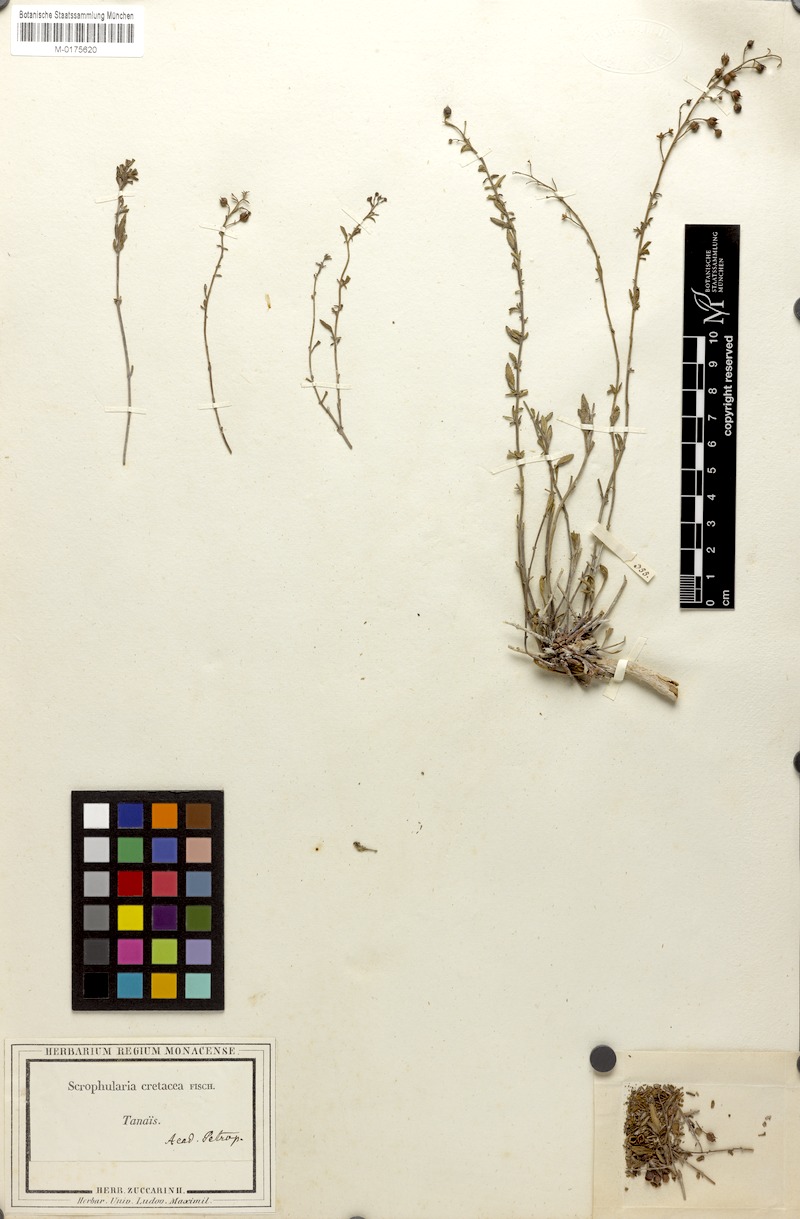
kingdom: Plantae
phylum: Tracheophyta
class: Magnoliopsida
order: Lamiales
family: Scrophulariaceae
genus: Scrophularia
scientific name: Scrophularia cretacea
